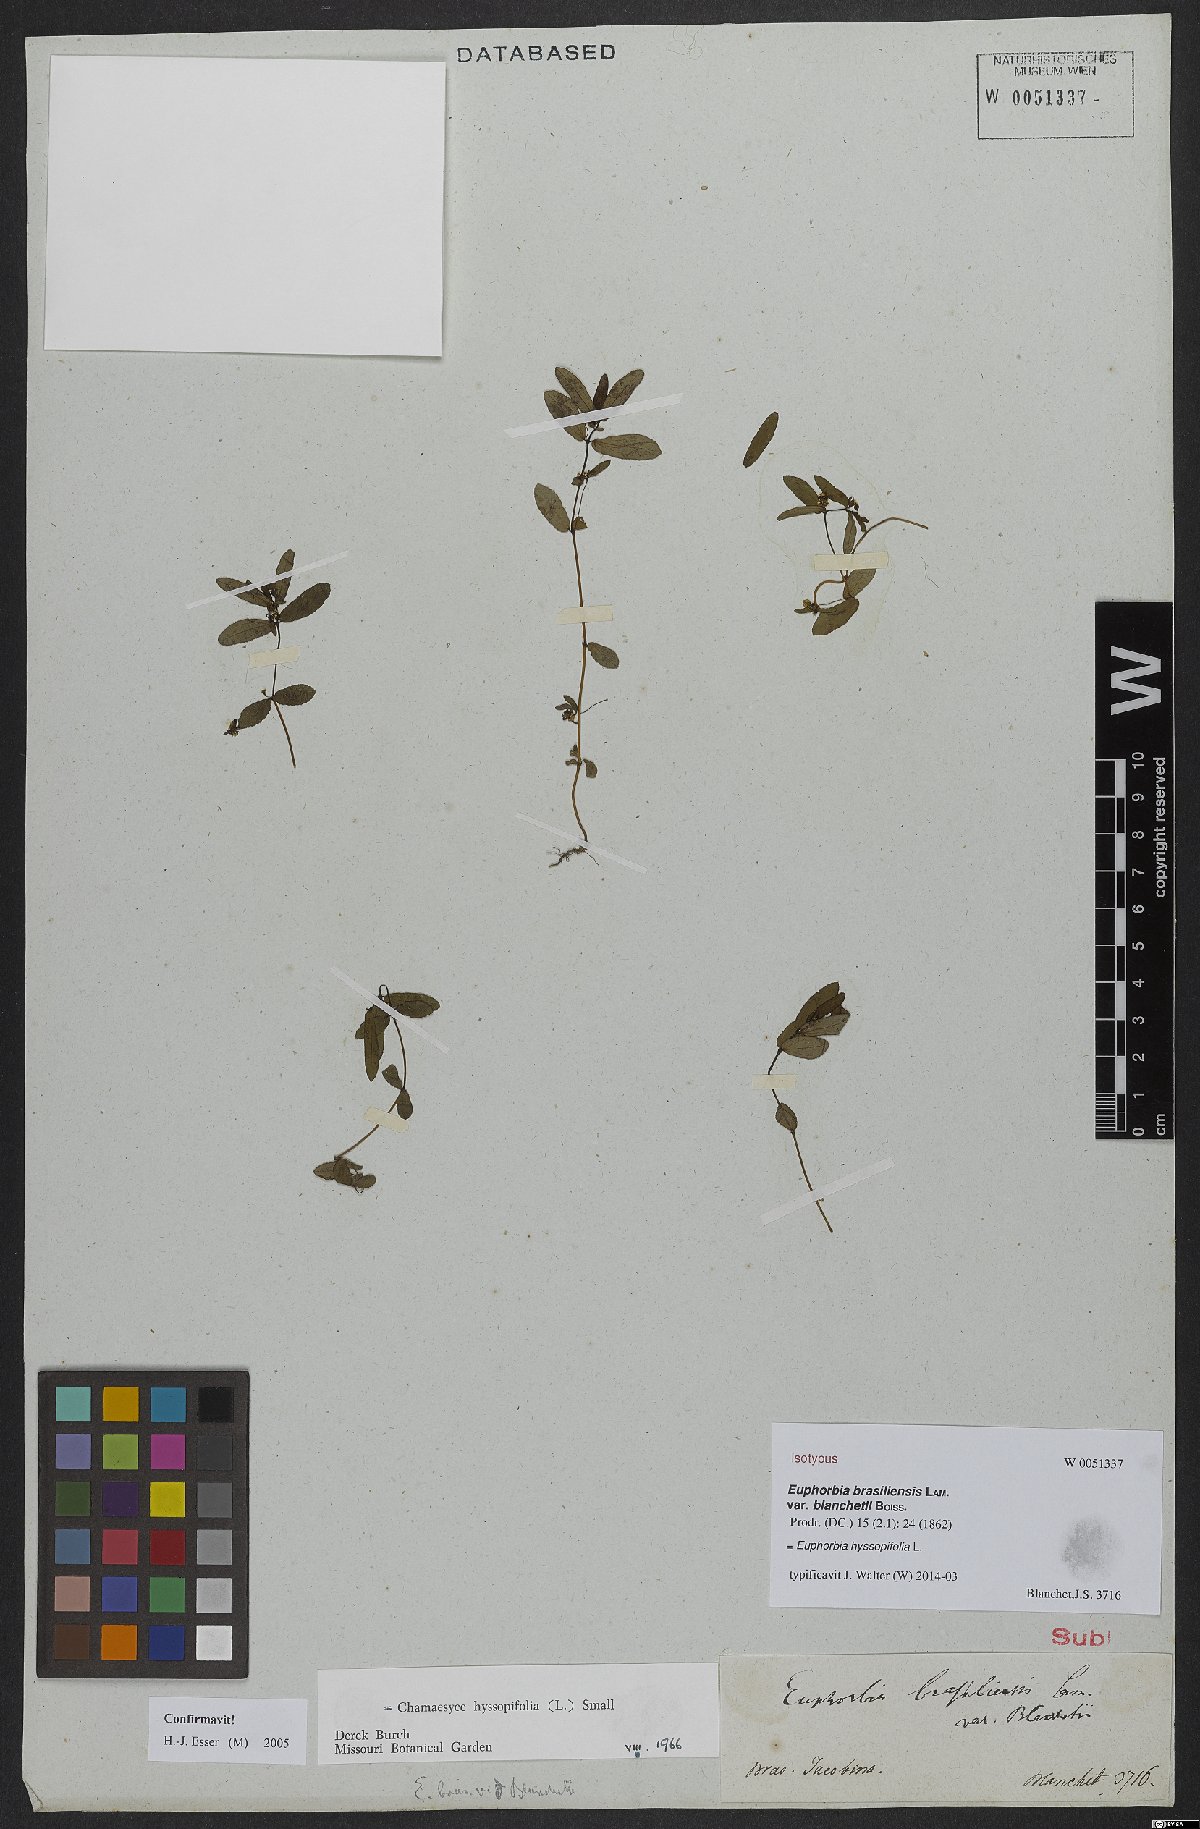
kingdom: Plantae
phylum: Tracheophyta
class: Magnoliopsida
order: Malpighiales
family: Euphorbiaceae
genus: Euphorbia
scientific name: Euphorbia hyssopifolia
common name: Hyssopleaf sandmat
